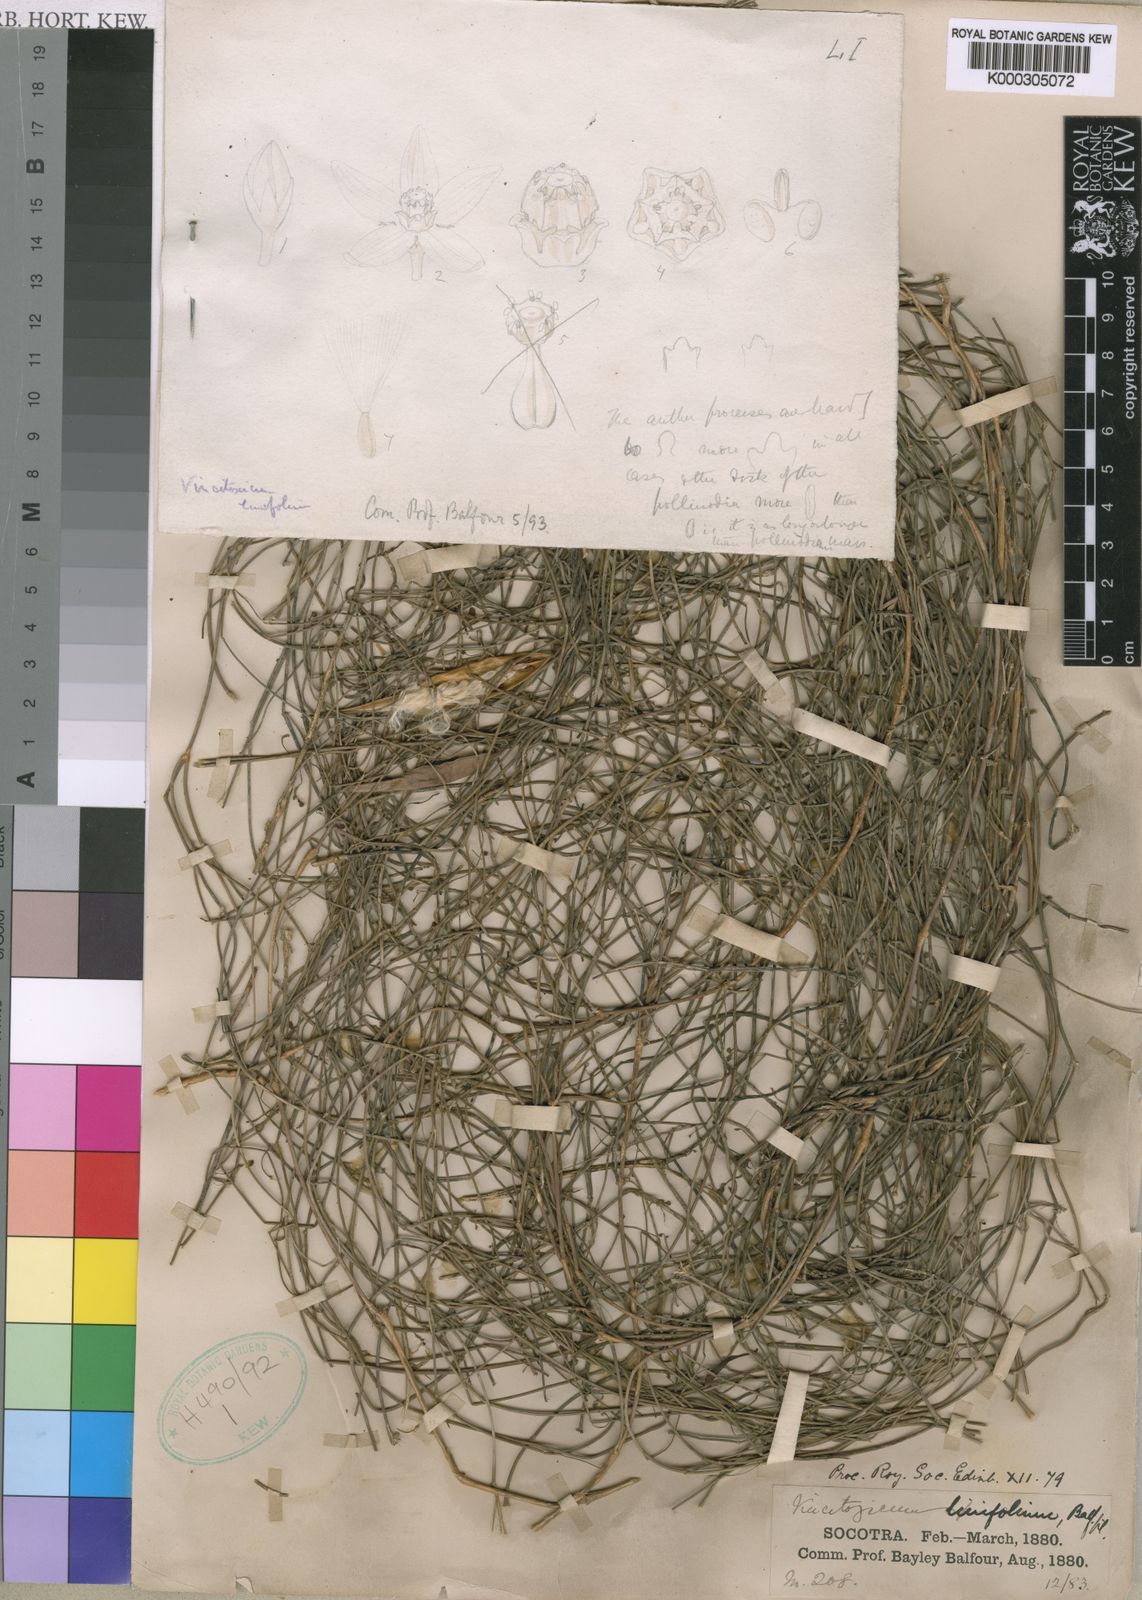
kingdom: Plantae
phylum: Tracheophyta
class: Magnoliopsida
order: Gentianales
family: Apocynaceae
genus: Vincetoxicum
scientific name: Vincetoxicum linifolium
